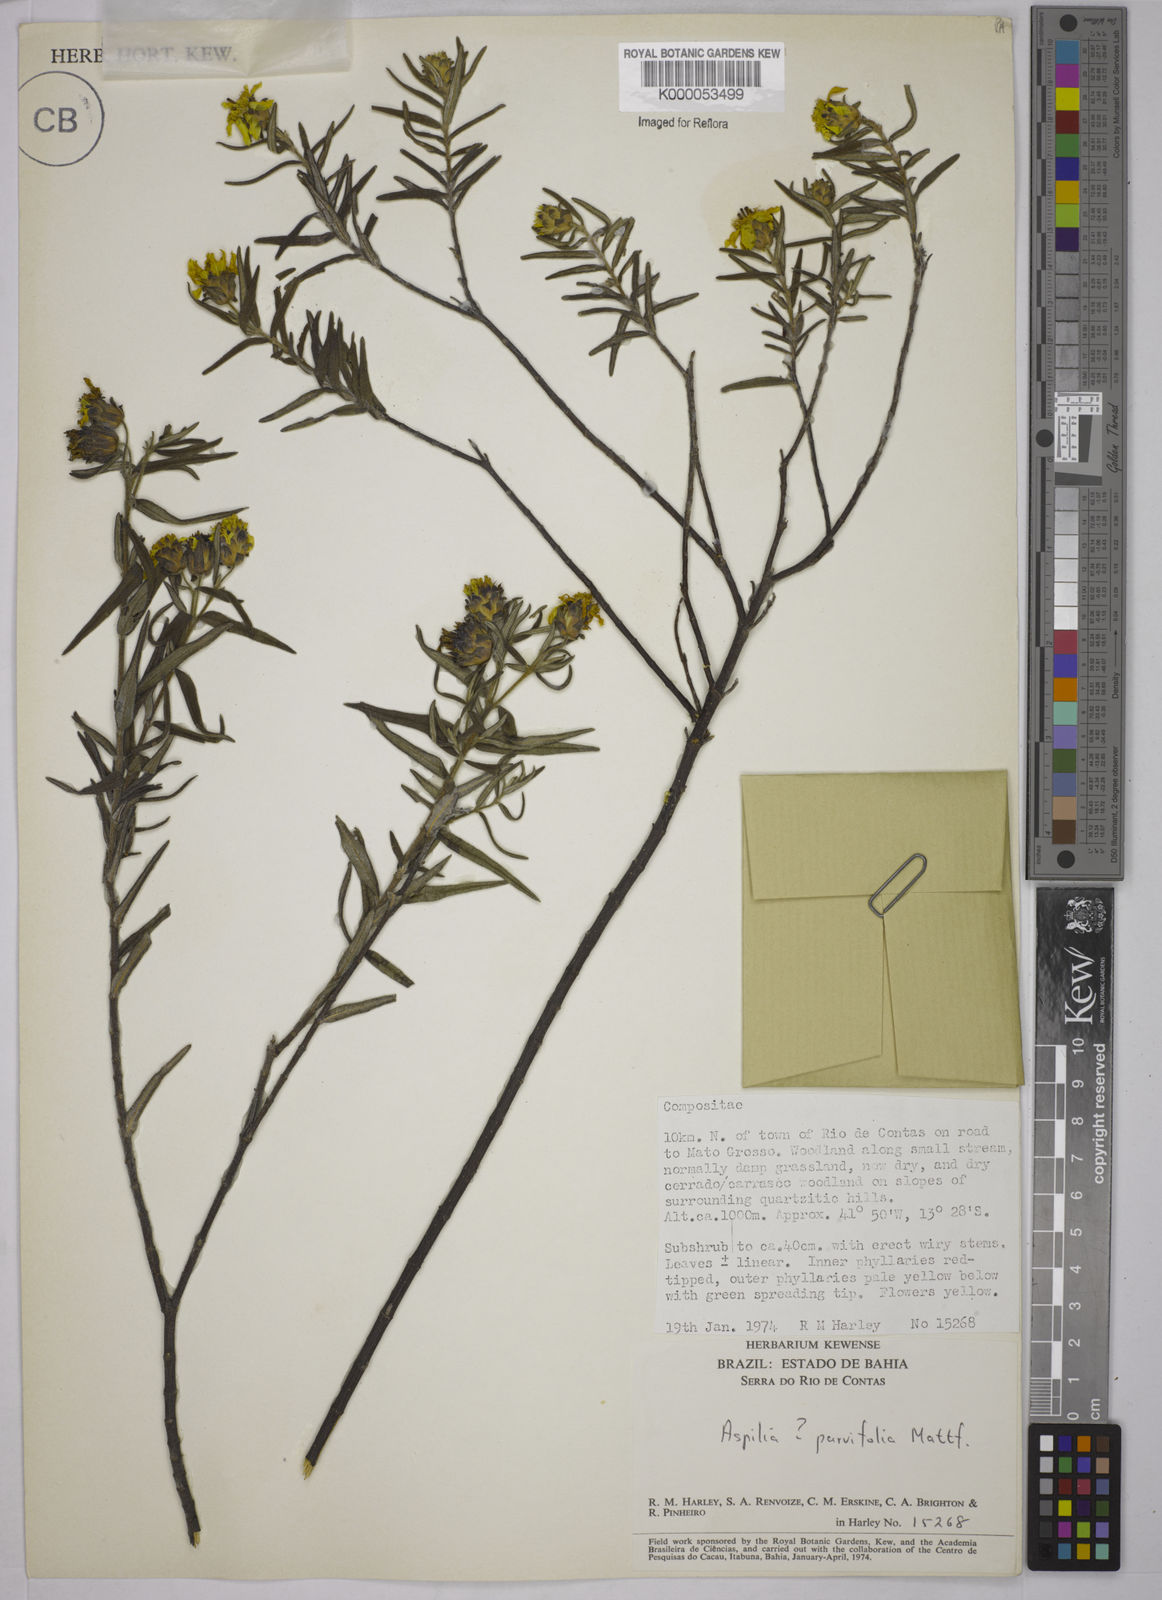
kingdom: Plantae
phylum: Tracheophyta
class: Magnoliopsida
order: Asterales
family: Asteraceae
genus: Aspilia
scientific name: Aspilia foliosa
